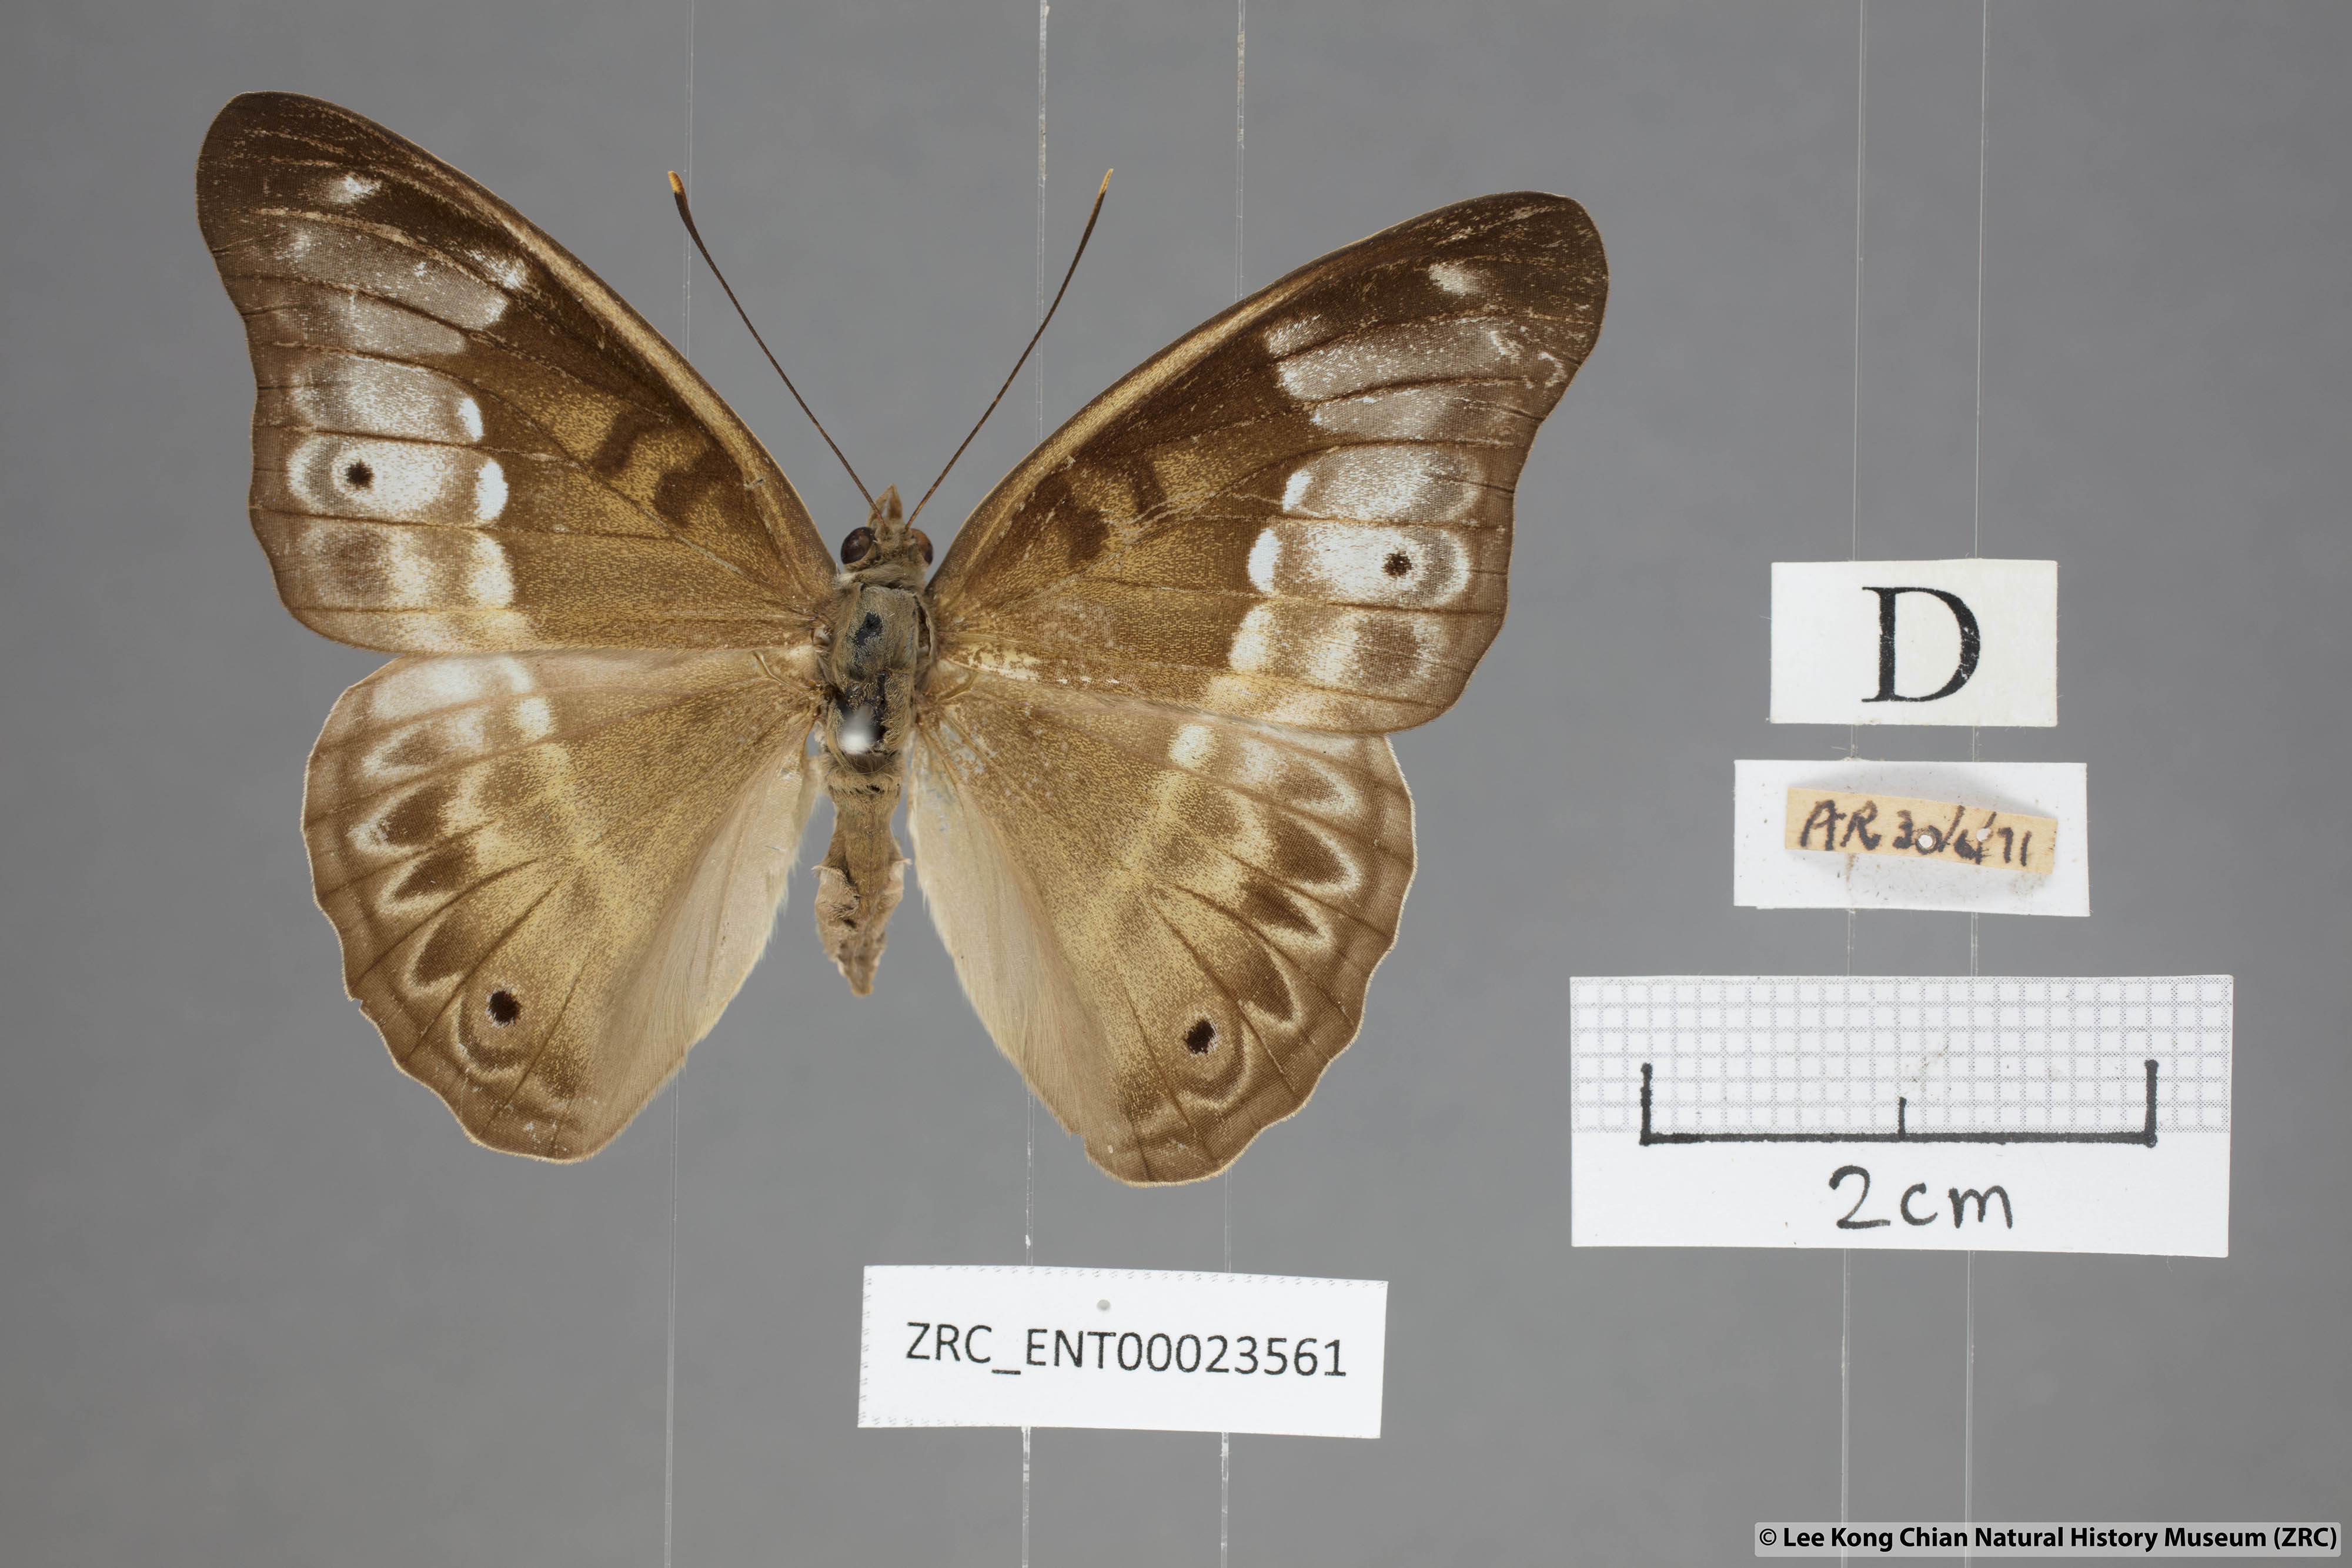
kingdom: Animalia
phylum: Arthropoda
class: Insecta
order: Lepidoptera
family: Nymphalidae
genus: Eulaceura
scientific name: Eulaceura osteria
